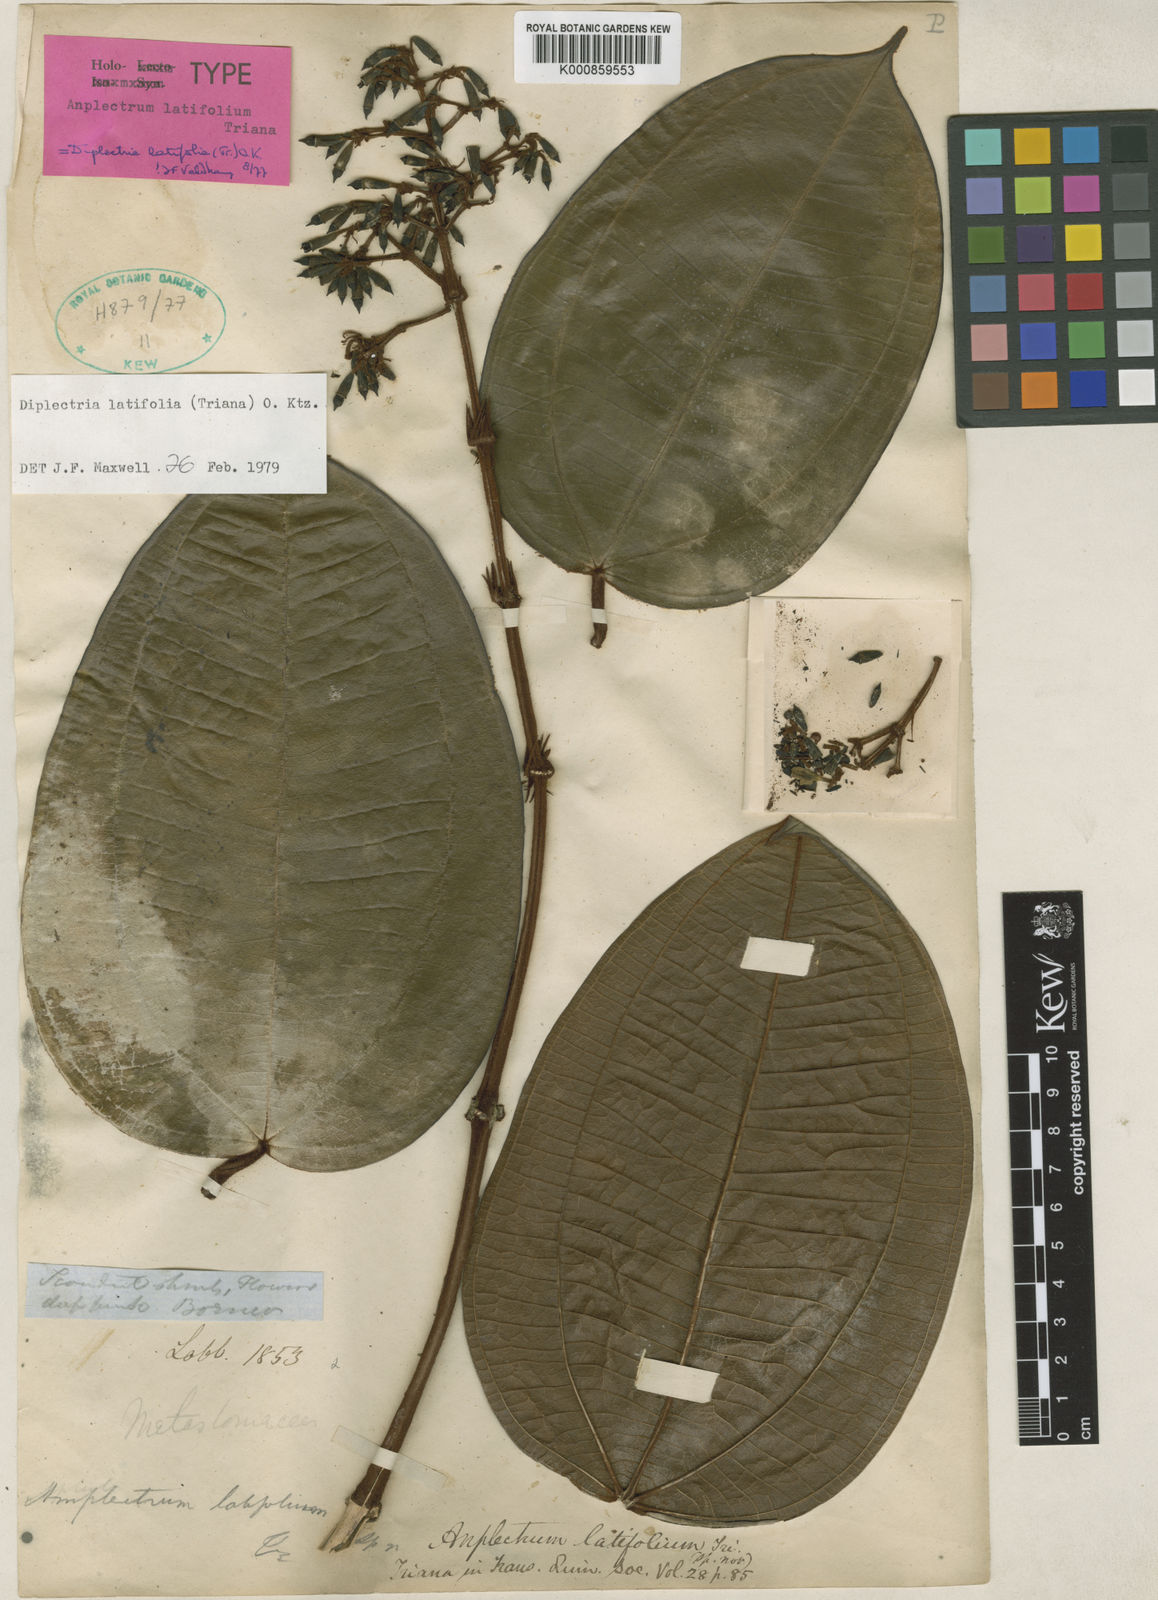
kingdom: Plantae
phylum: Tracheophyta
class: Magnoliopsida
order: Myrtales
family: Melastomataceae
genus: Dalenia
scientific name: Dalenia latifolia
